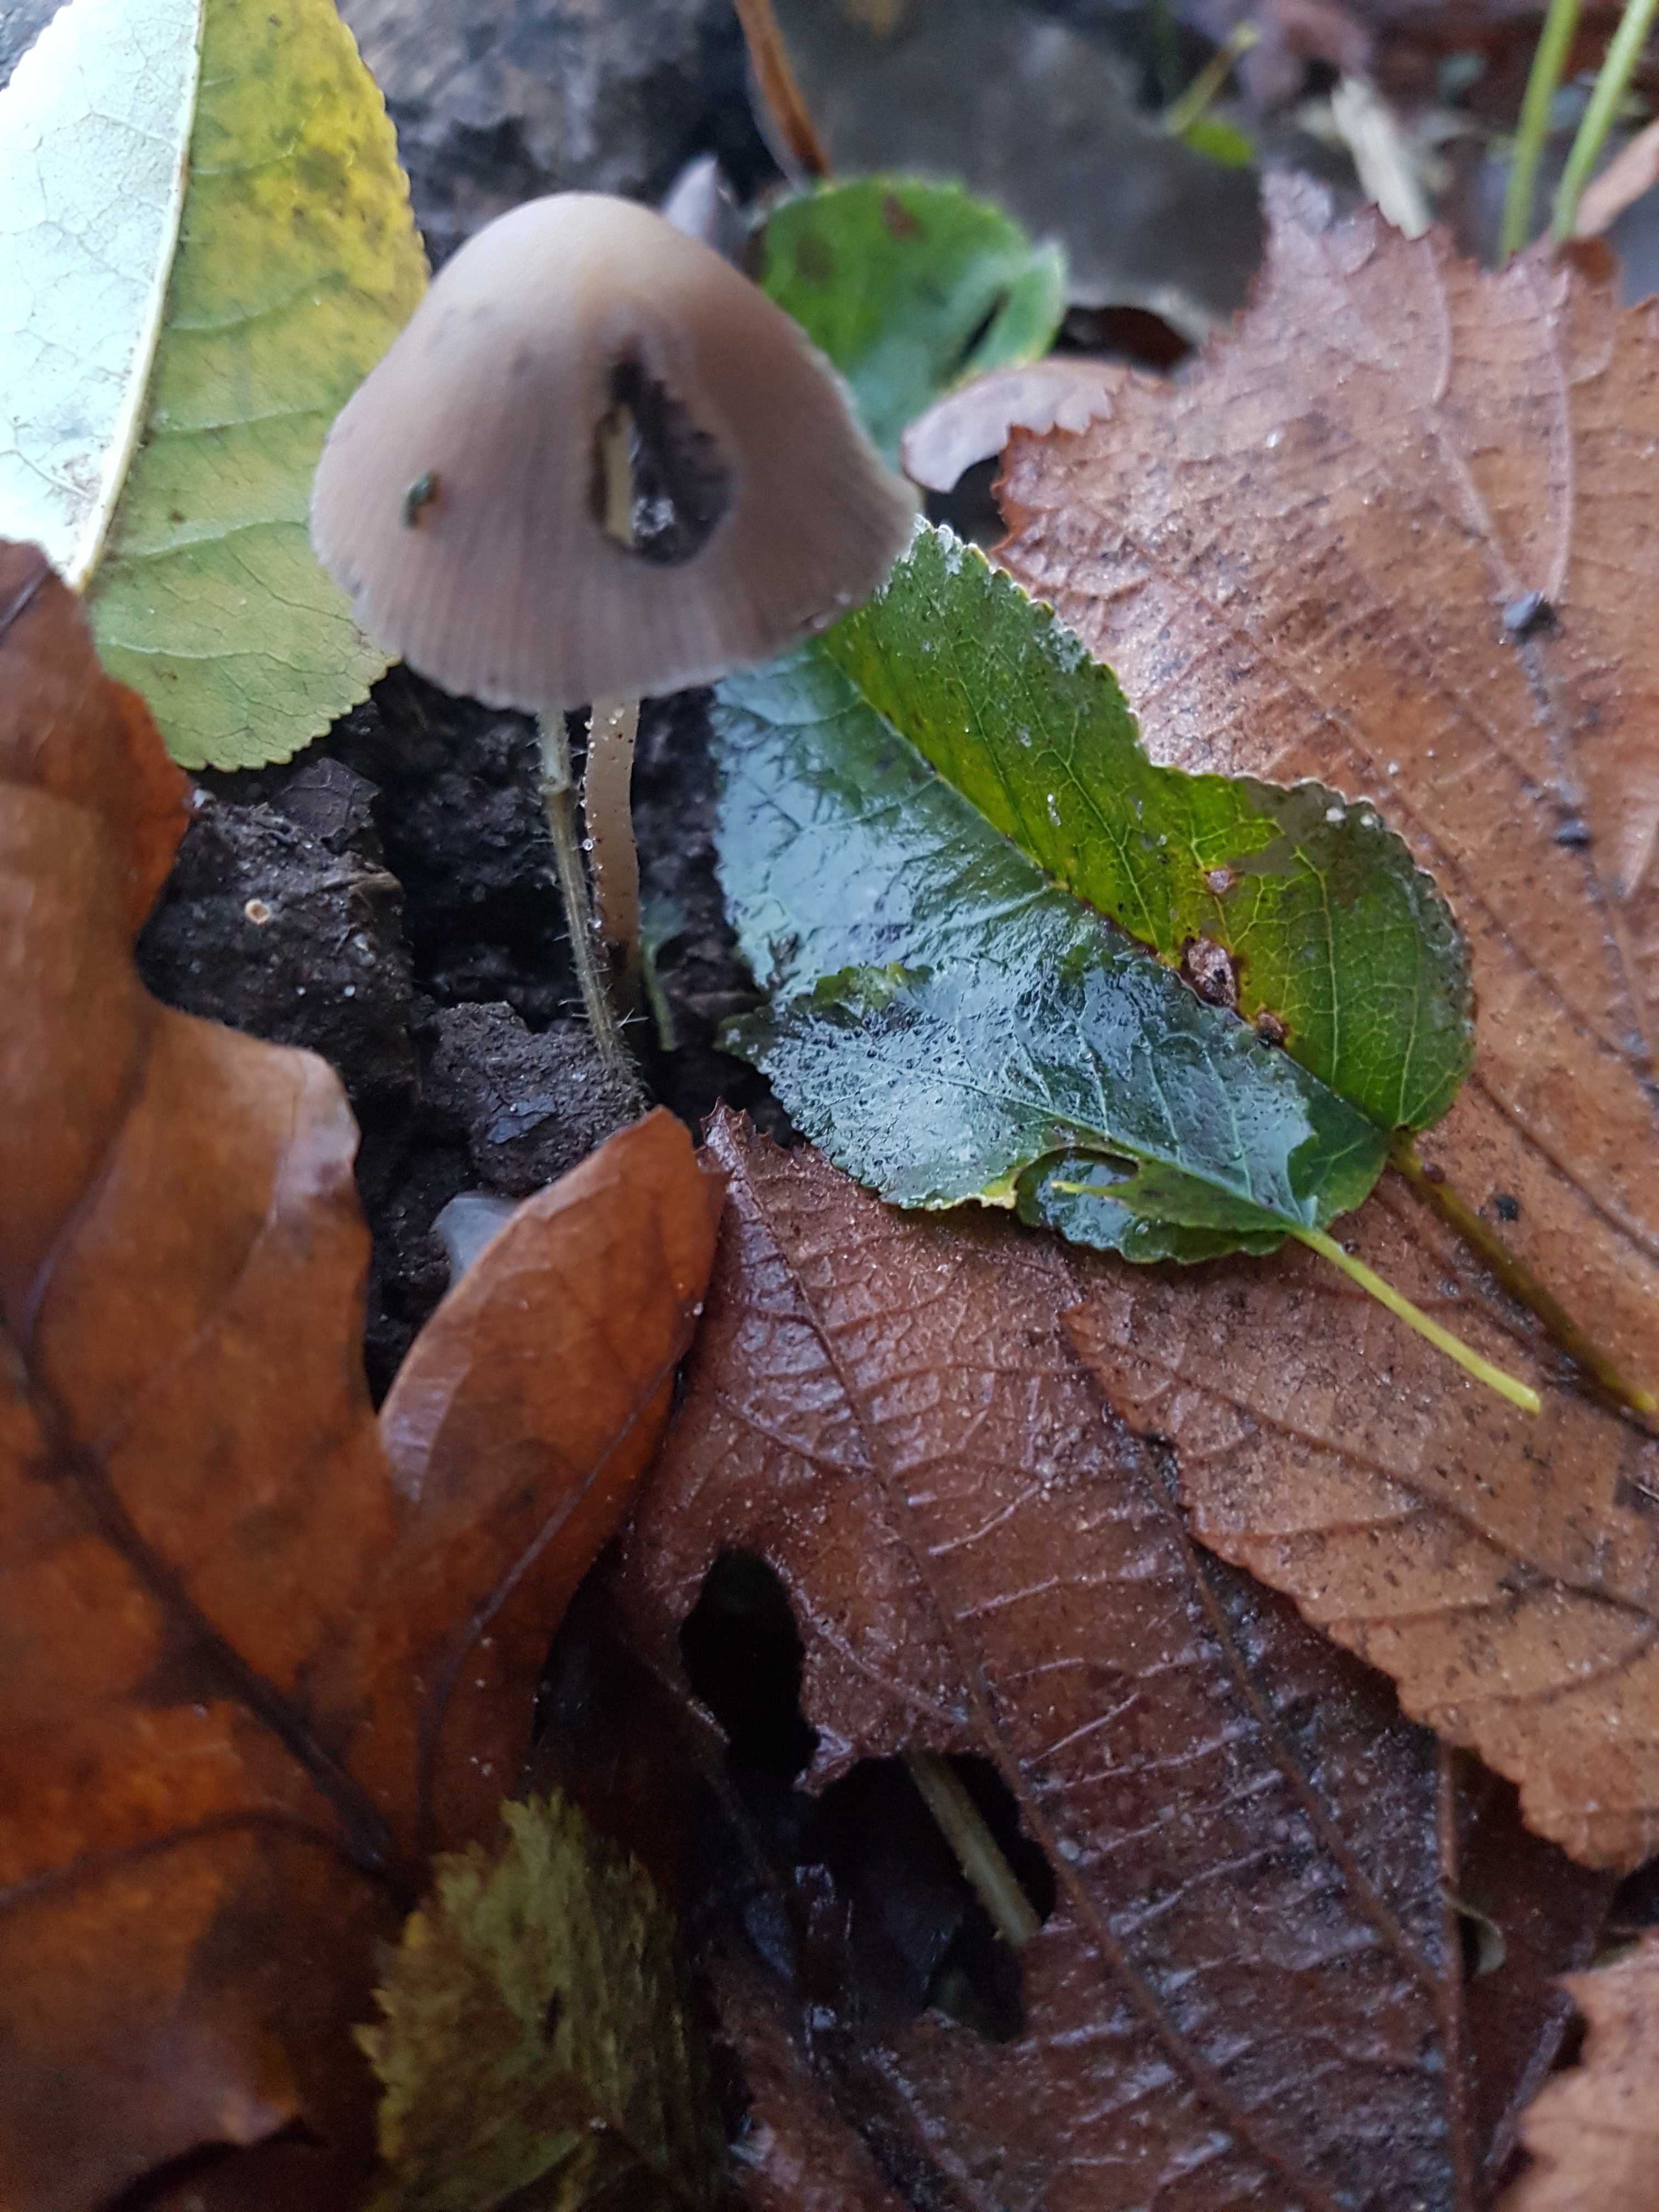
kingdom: Fungi
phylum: Basidiomycota
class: Agaricomycetes
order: Agaricales
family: Psathyrellaceae
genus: Psathyrella
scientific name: Psathyrella
